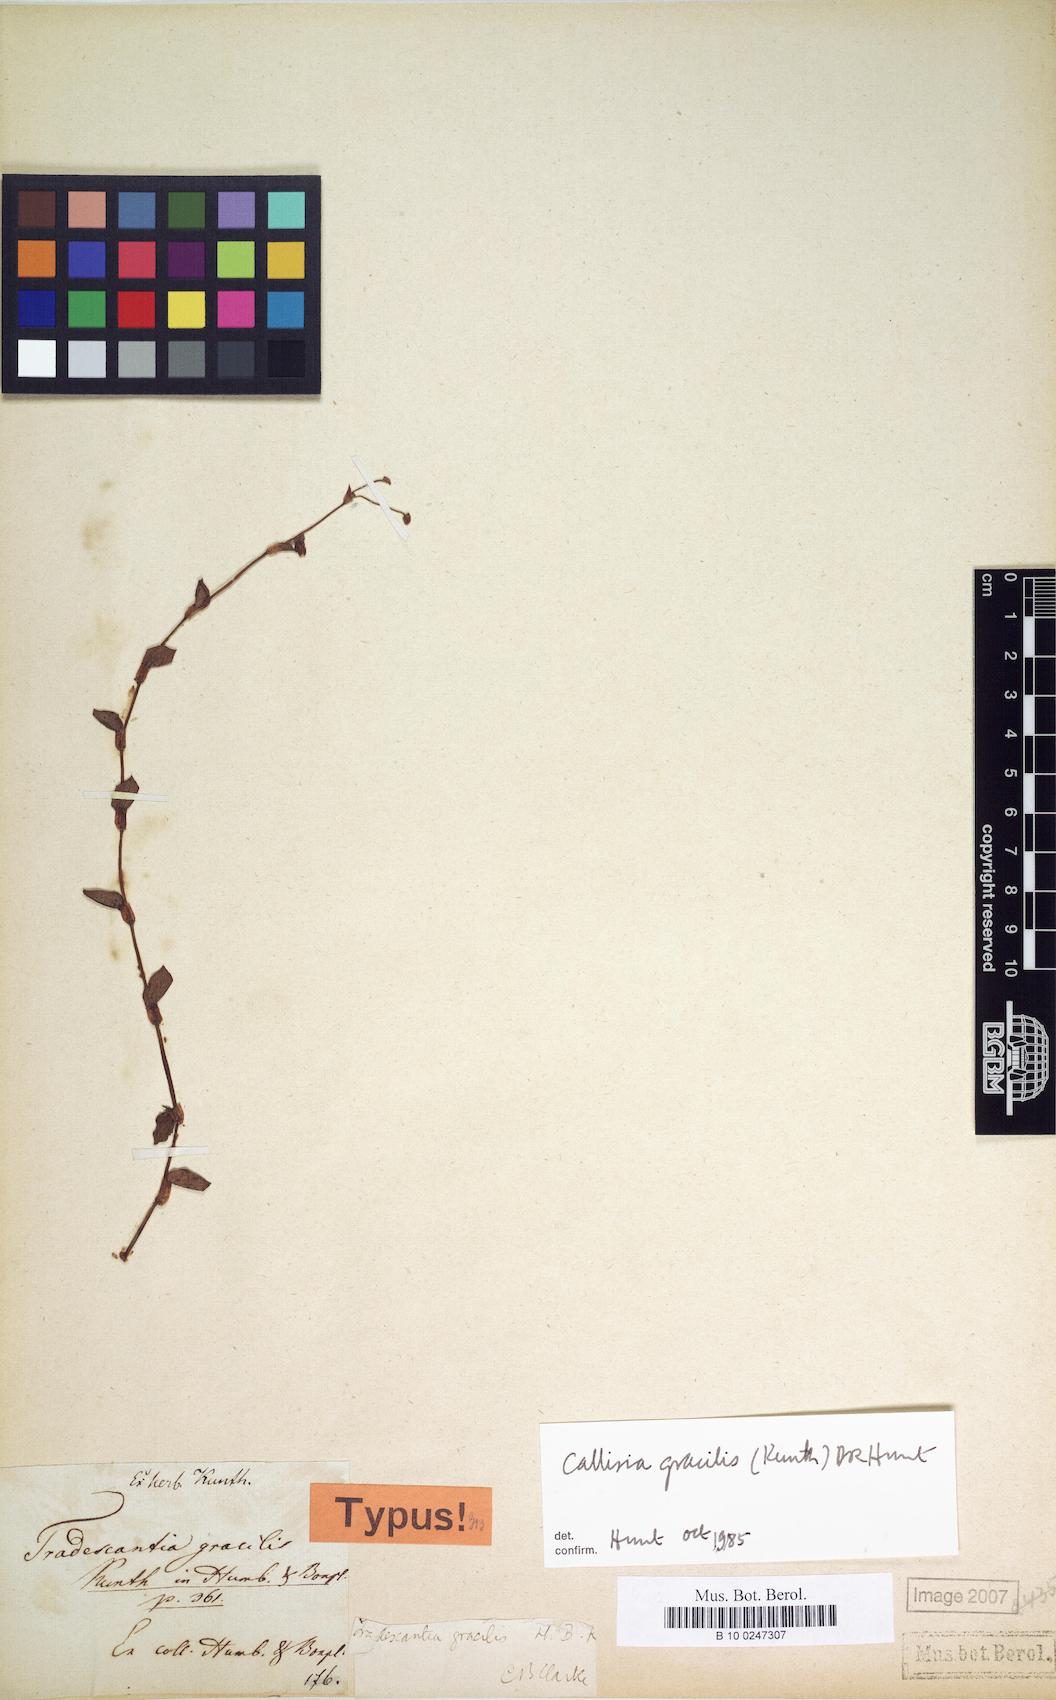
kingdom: Plantae
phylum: Tracheophyta
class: Liliopsida
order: Commelinales
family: Commelinaceae
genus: Callisia
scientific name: Callisia gracilis
